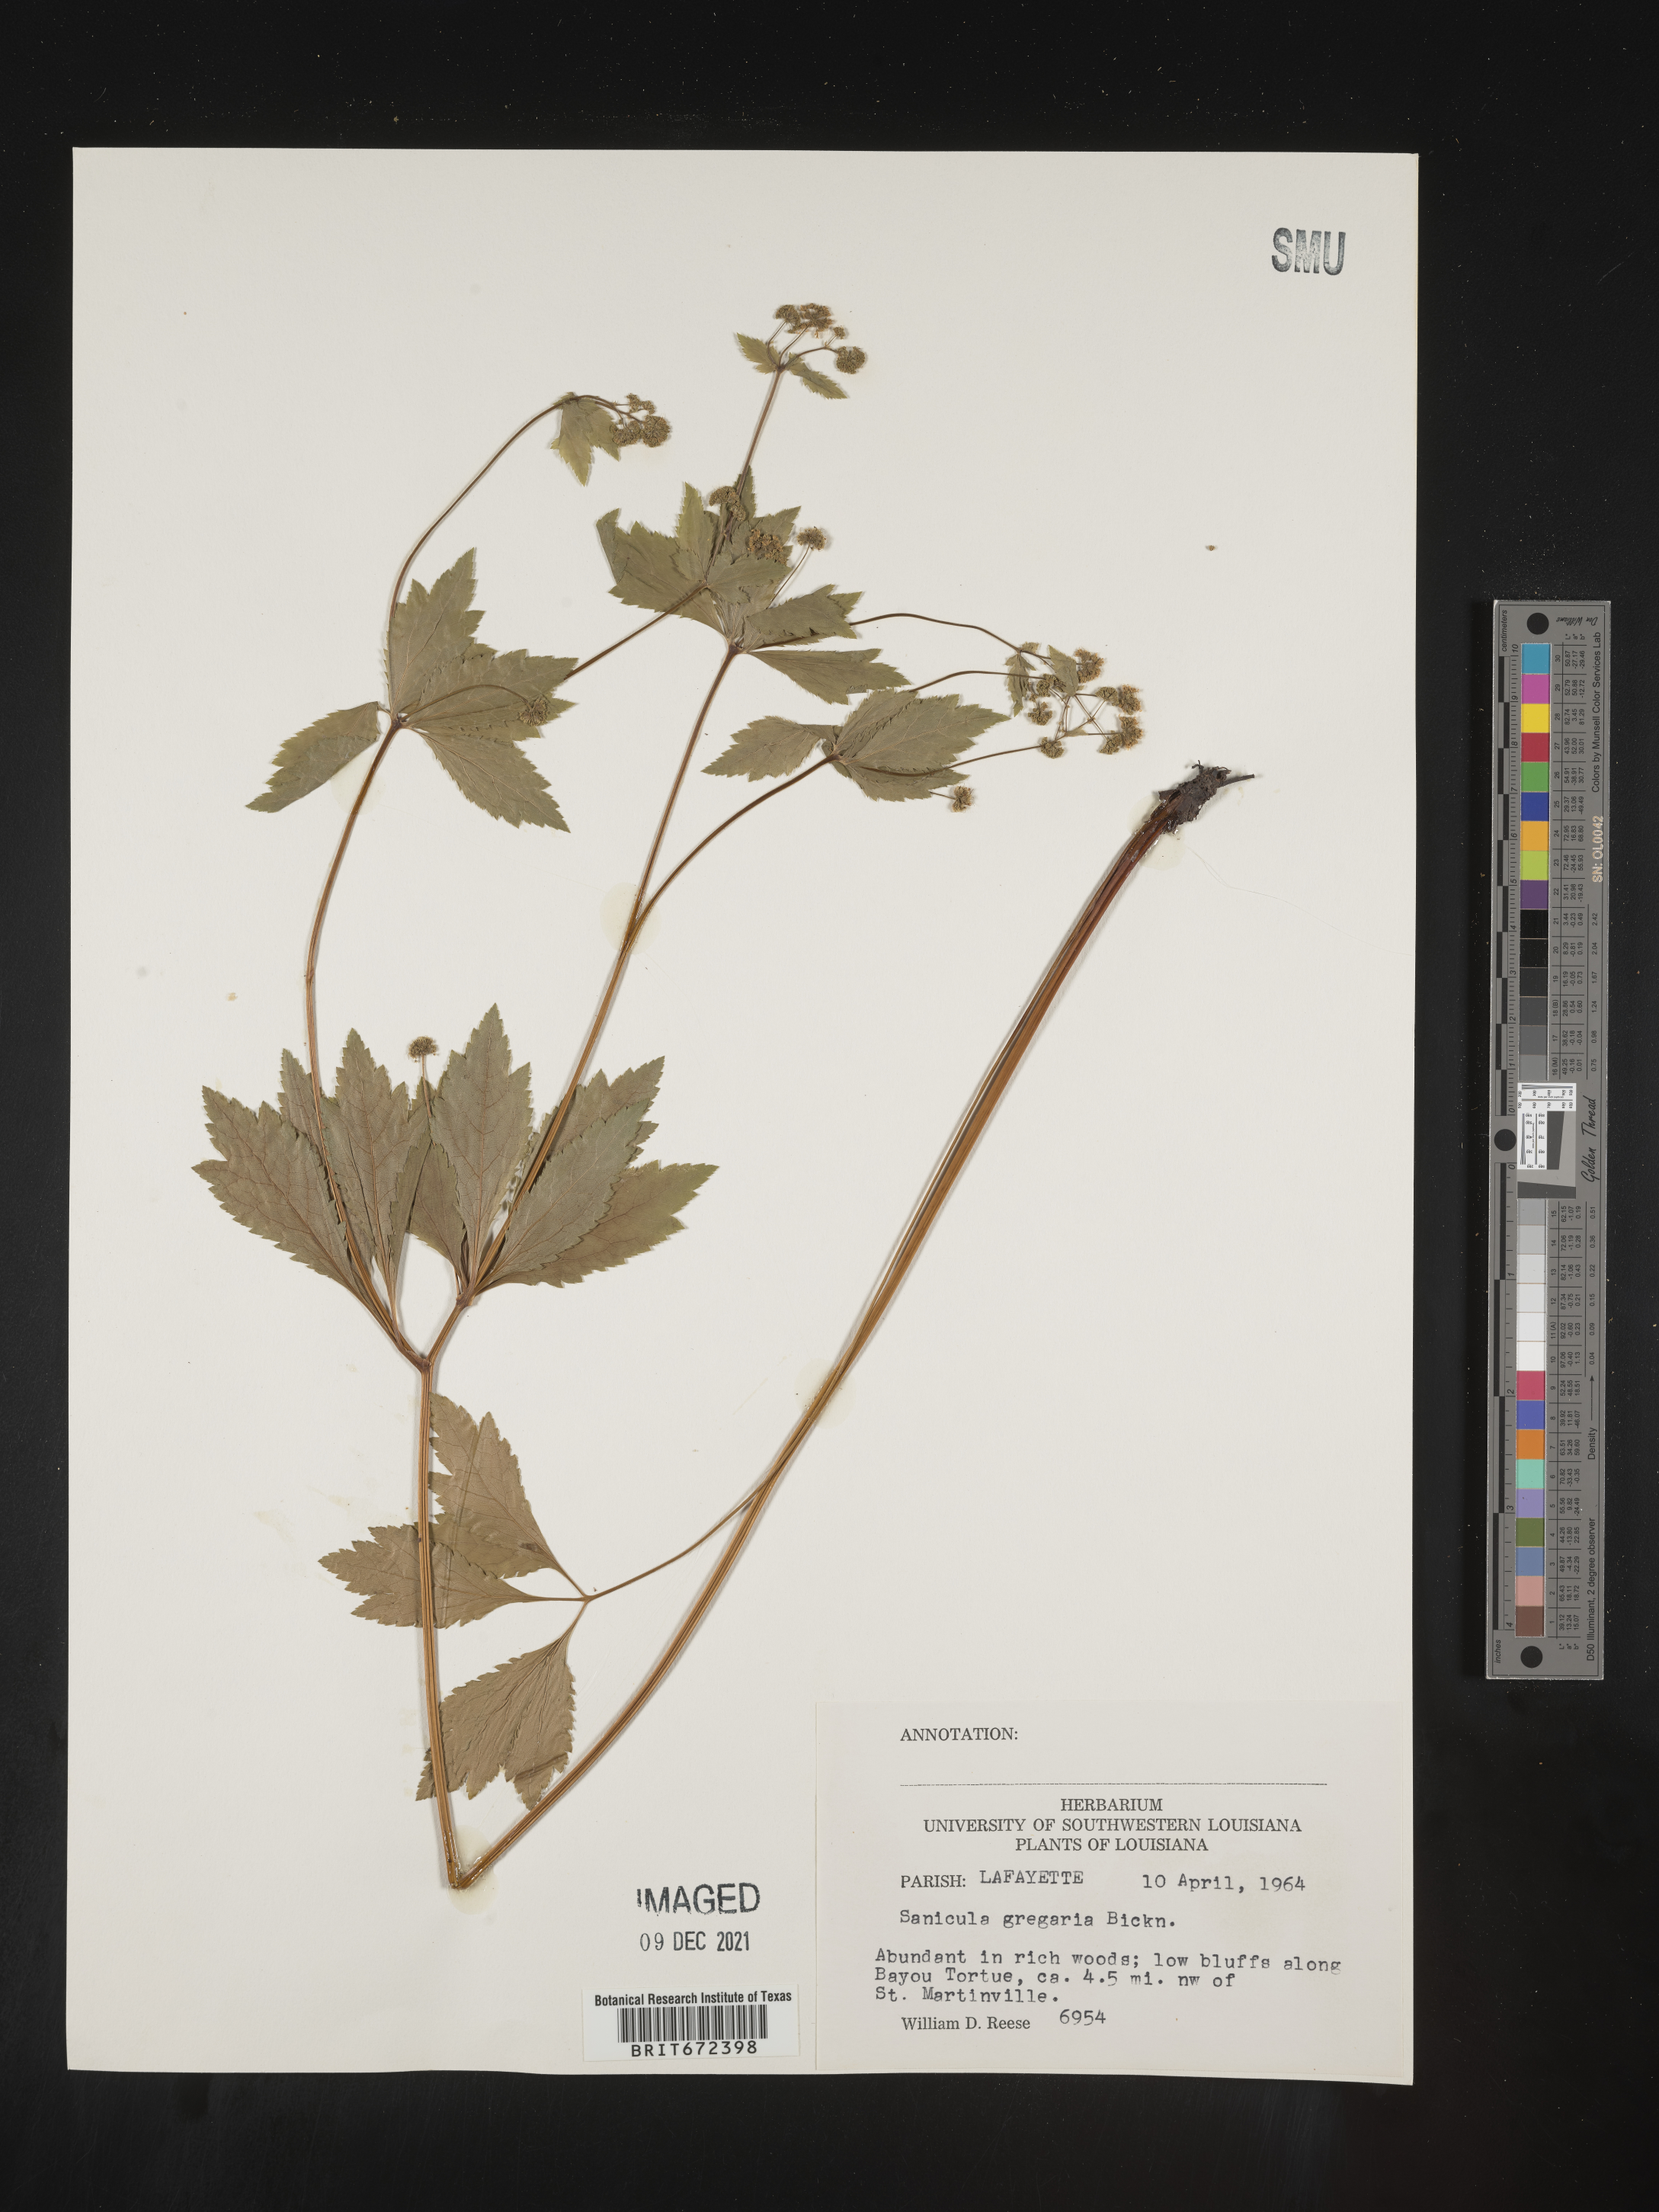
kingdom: Plantae
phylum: Tracheophyta
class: Magnoliopsida
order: Apiales
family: Apiaceae
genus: Sanicula
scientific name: Sanicula odorata
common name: Cluster sanicle
